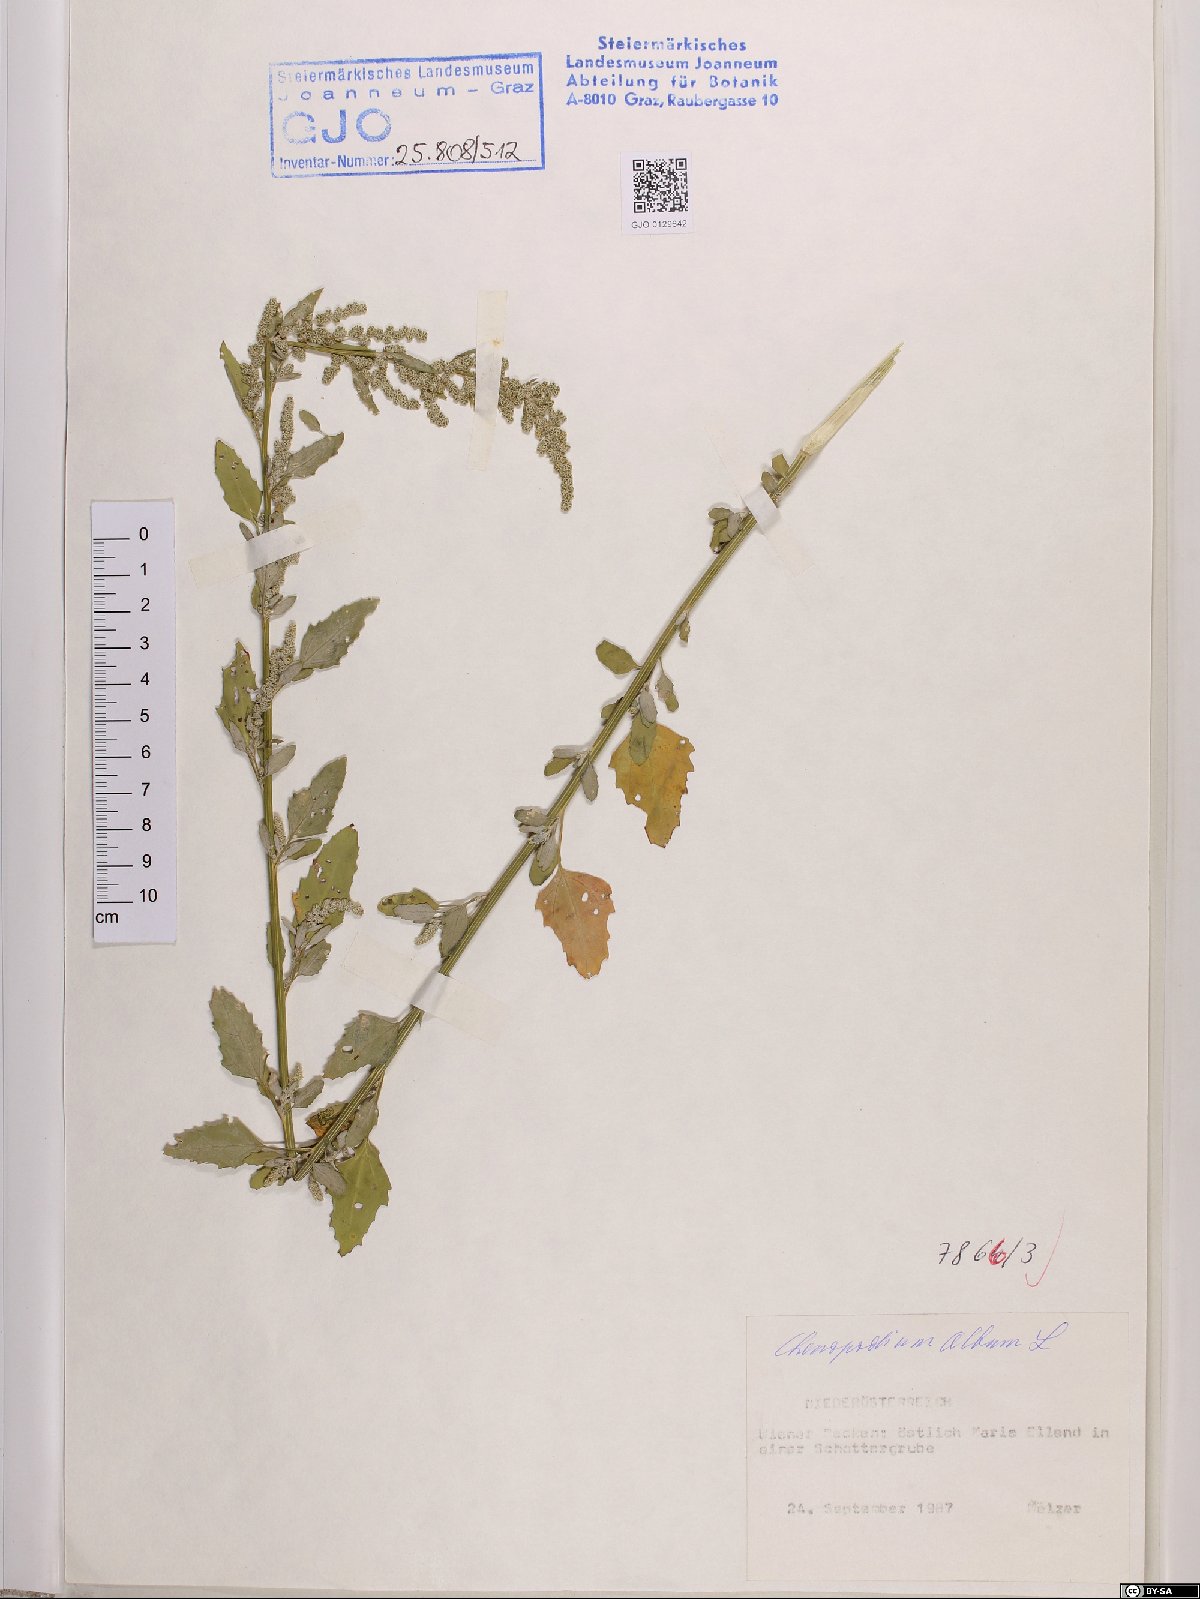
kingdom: Plantae
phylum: Tracheophyta
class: Magnoliopsida
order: Caryophyllales
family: Amaranthaceae
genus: Chenopodium
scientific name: Chenopodium album
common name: Fat-hen
